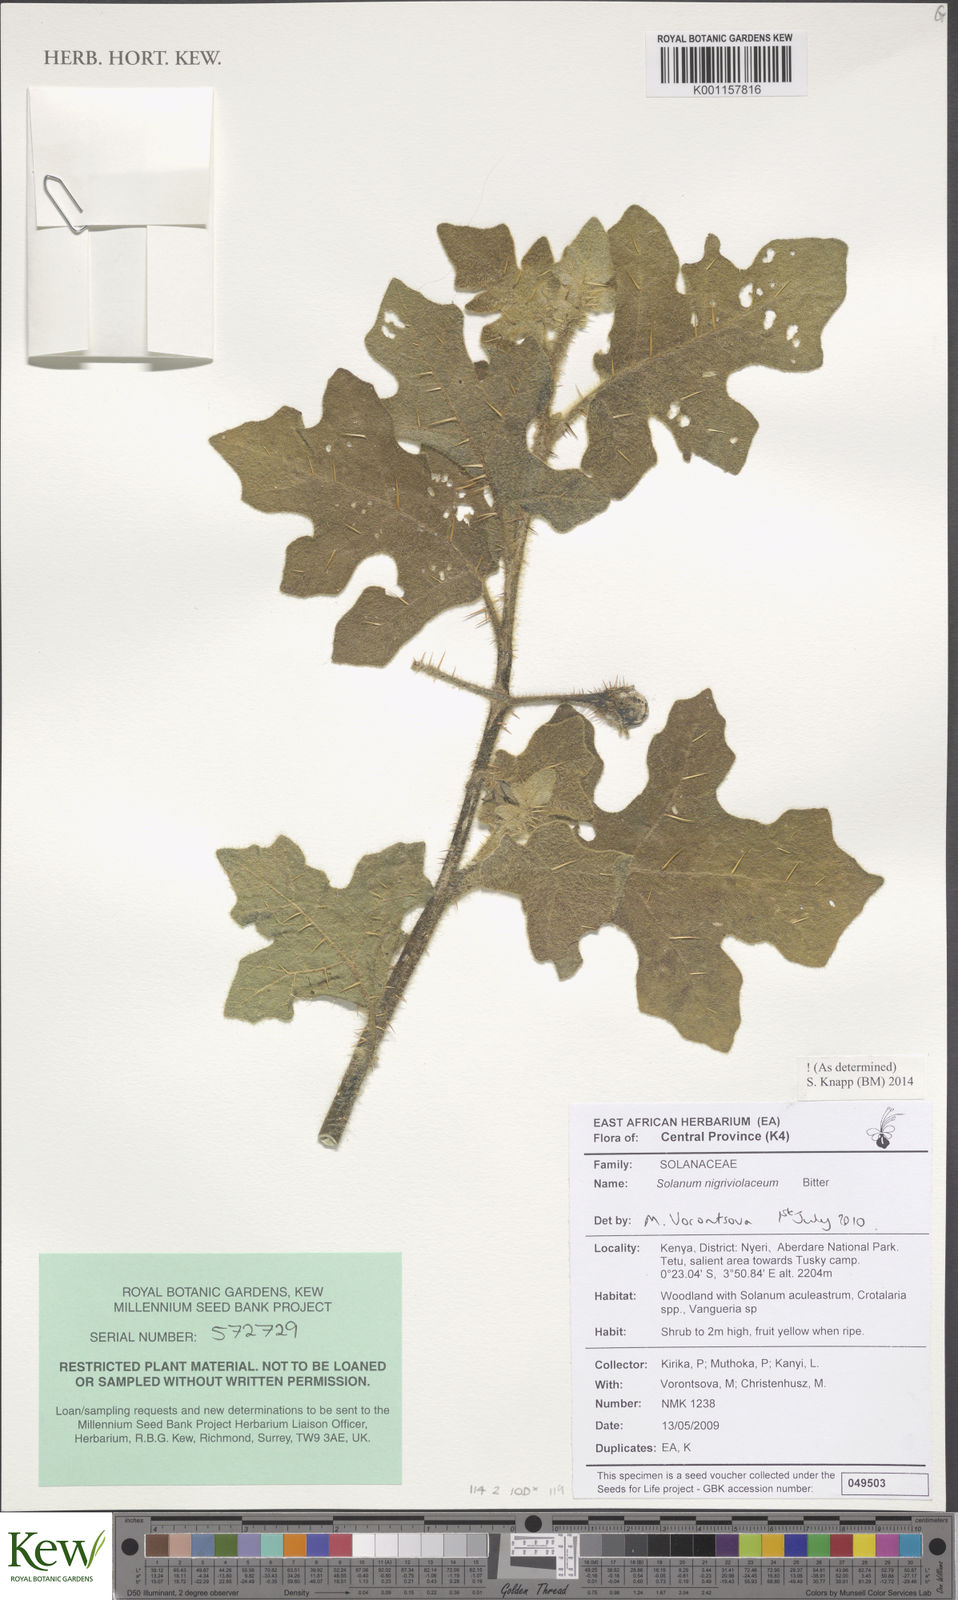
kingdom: Plantae
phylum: Tracheophyta
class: Magnoliopsida
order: Solanales
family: Solanaceae
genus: Solanum
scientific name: Solanum nigriviolaceum
